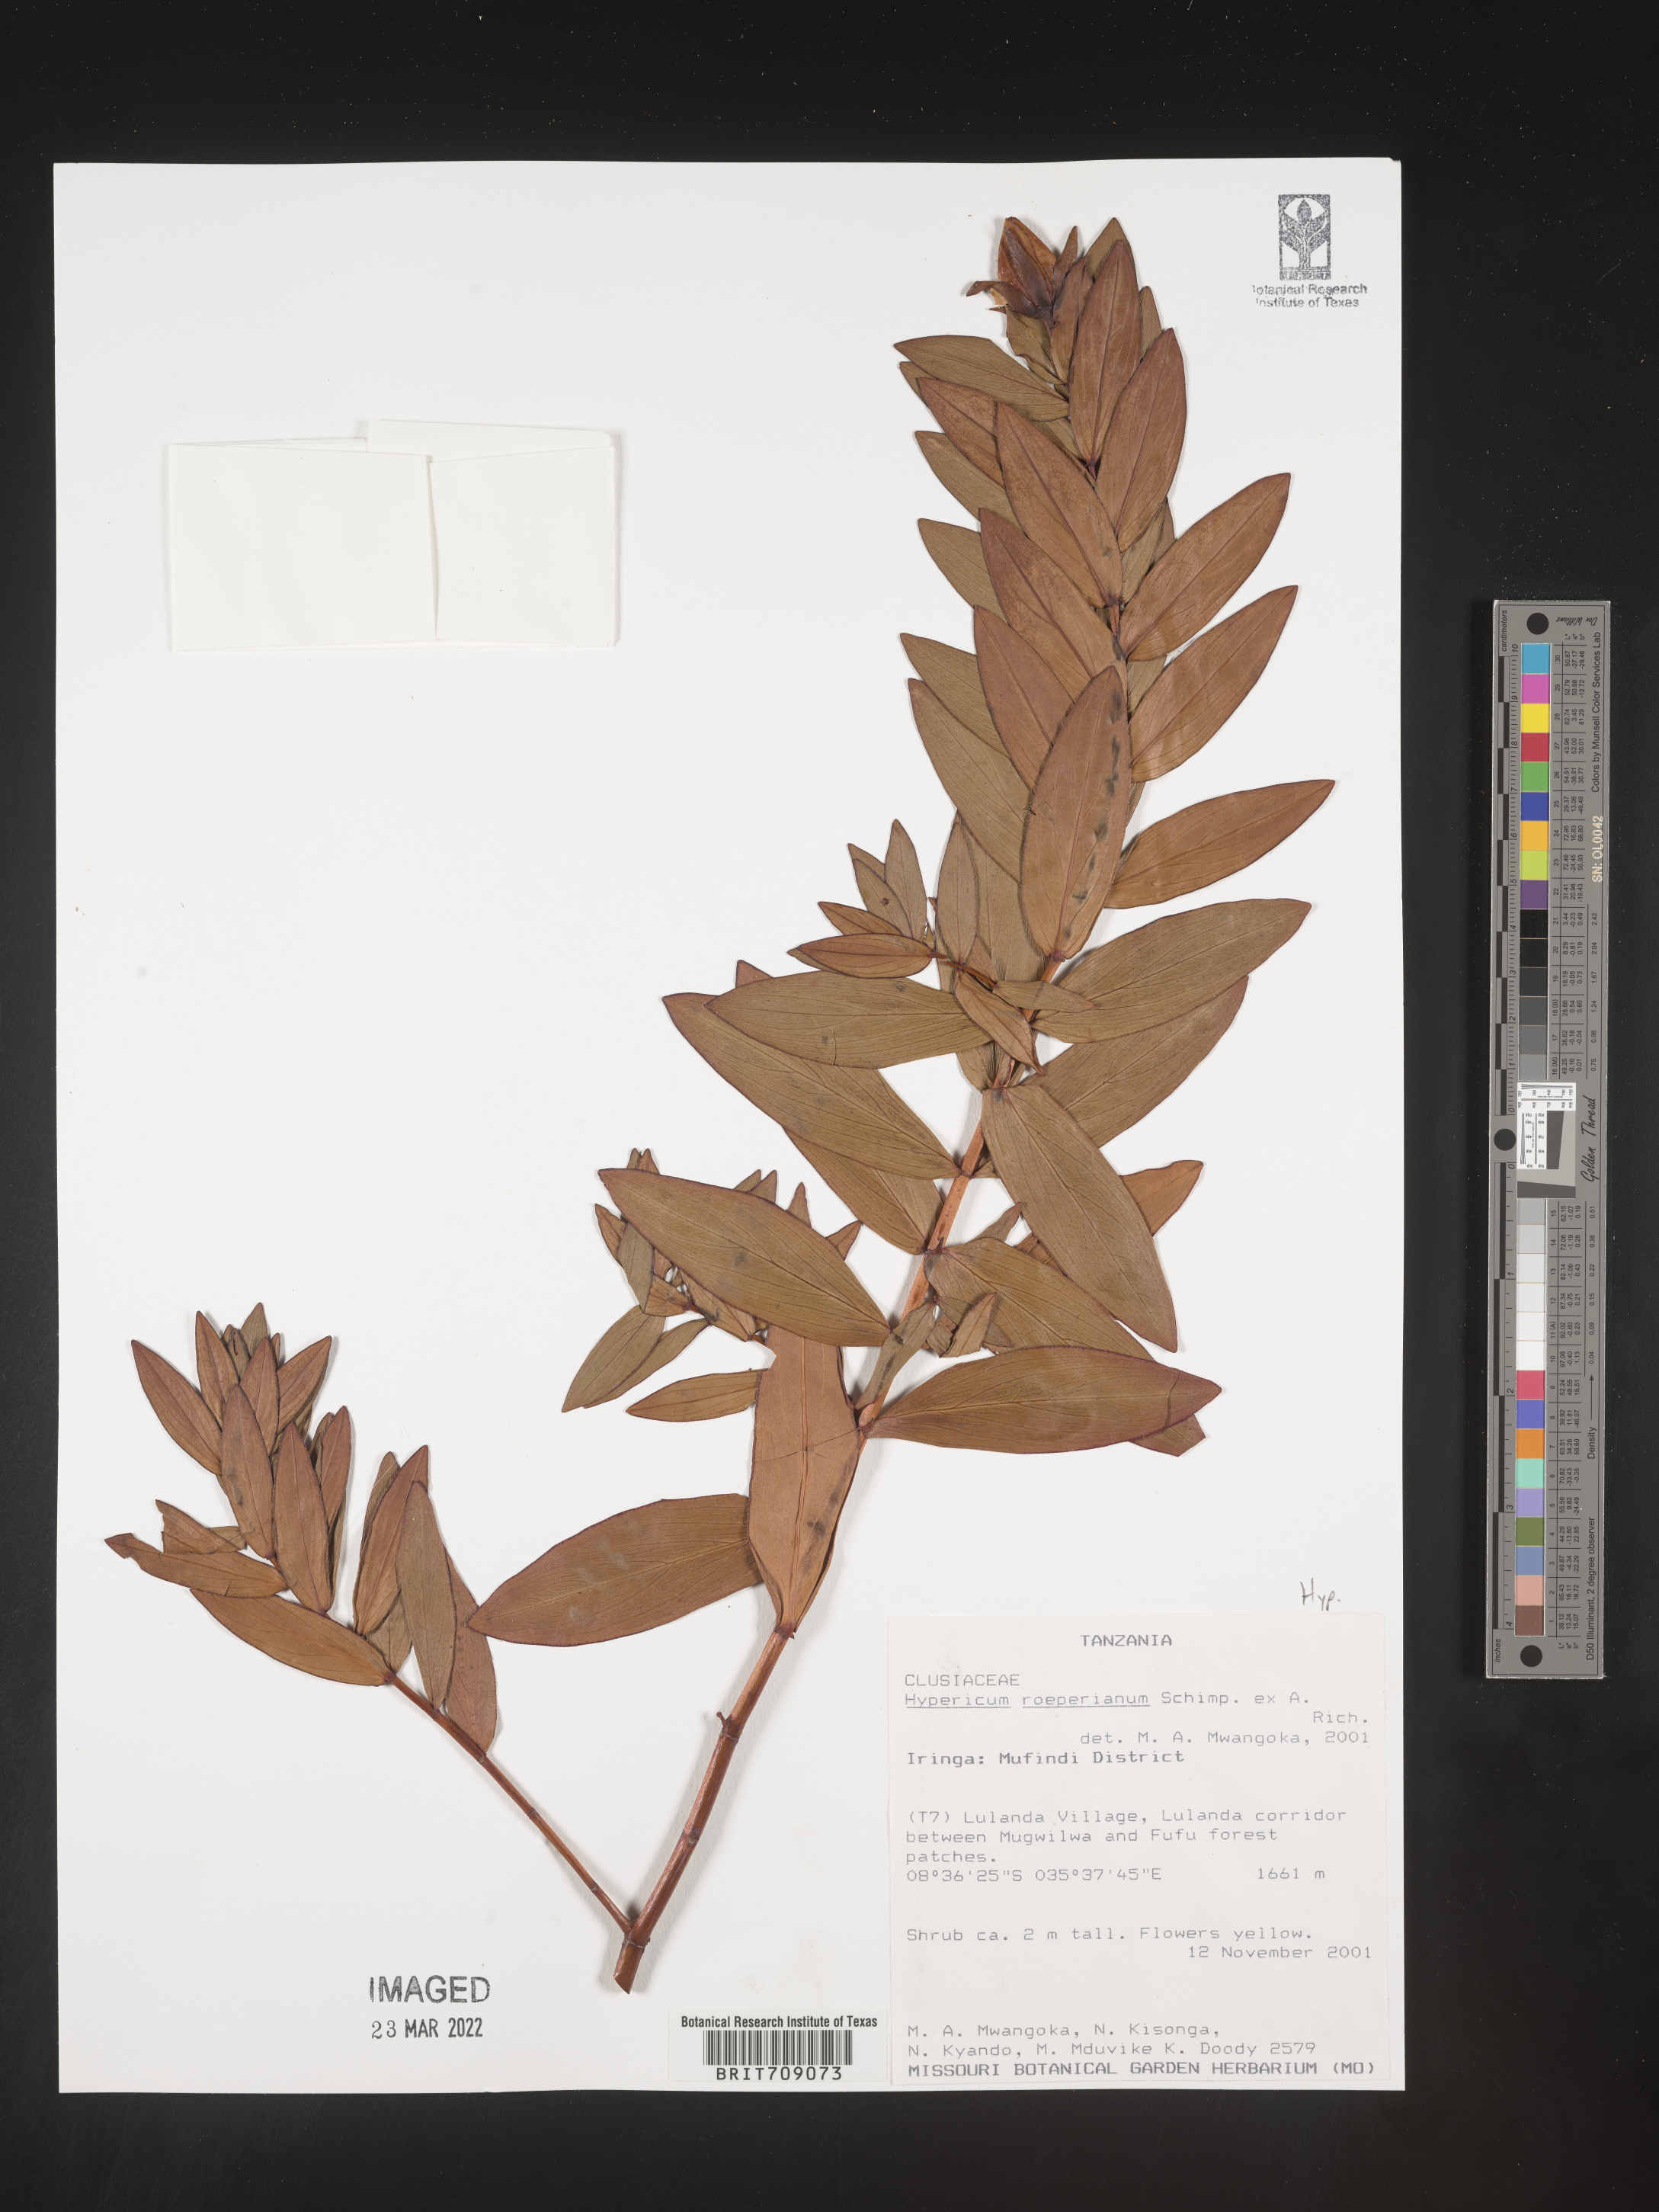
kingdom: Plantae
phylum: Tracheophyta
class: Magnoliopsida
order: Malpighiales
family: Hypericaceae
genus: Hypericum
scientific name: Hypericum
